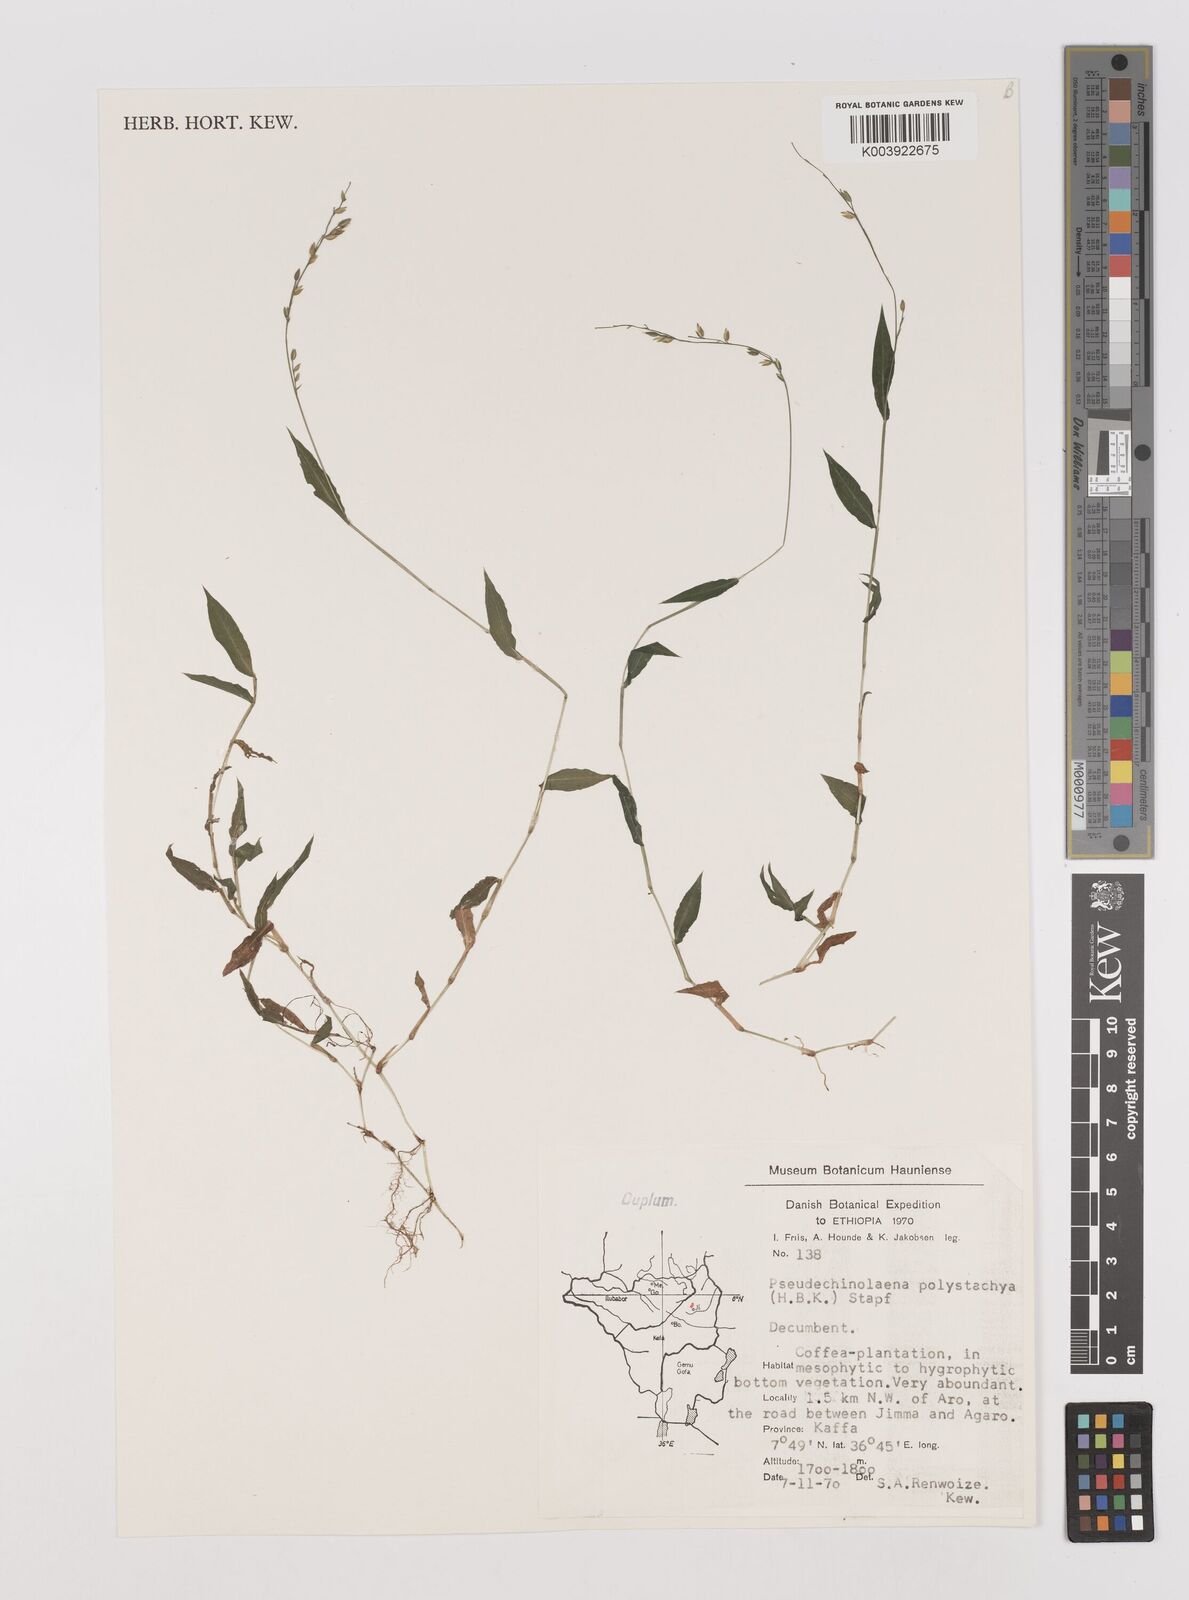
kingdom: Plantae
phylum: Tracheophyta
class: Liliopsida
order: Poales
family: Poaceae
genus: Pseudechinolaena
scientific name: Pseudechinolaena polystachya
